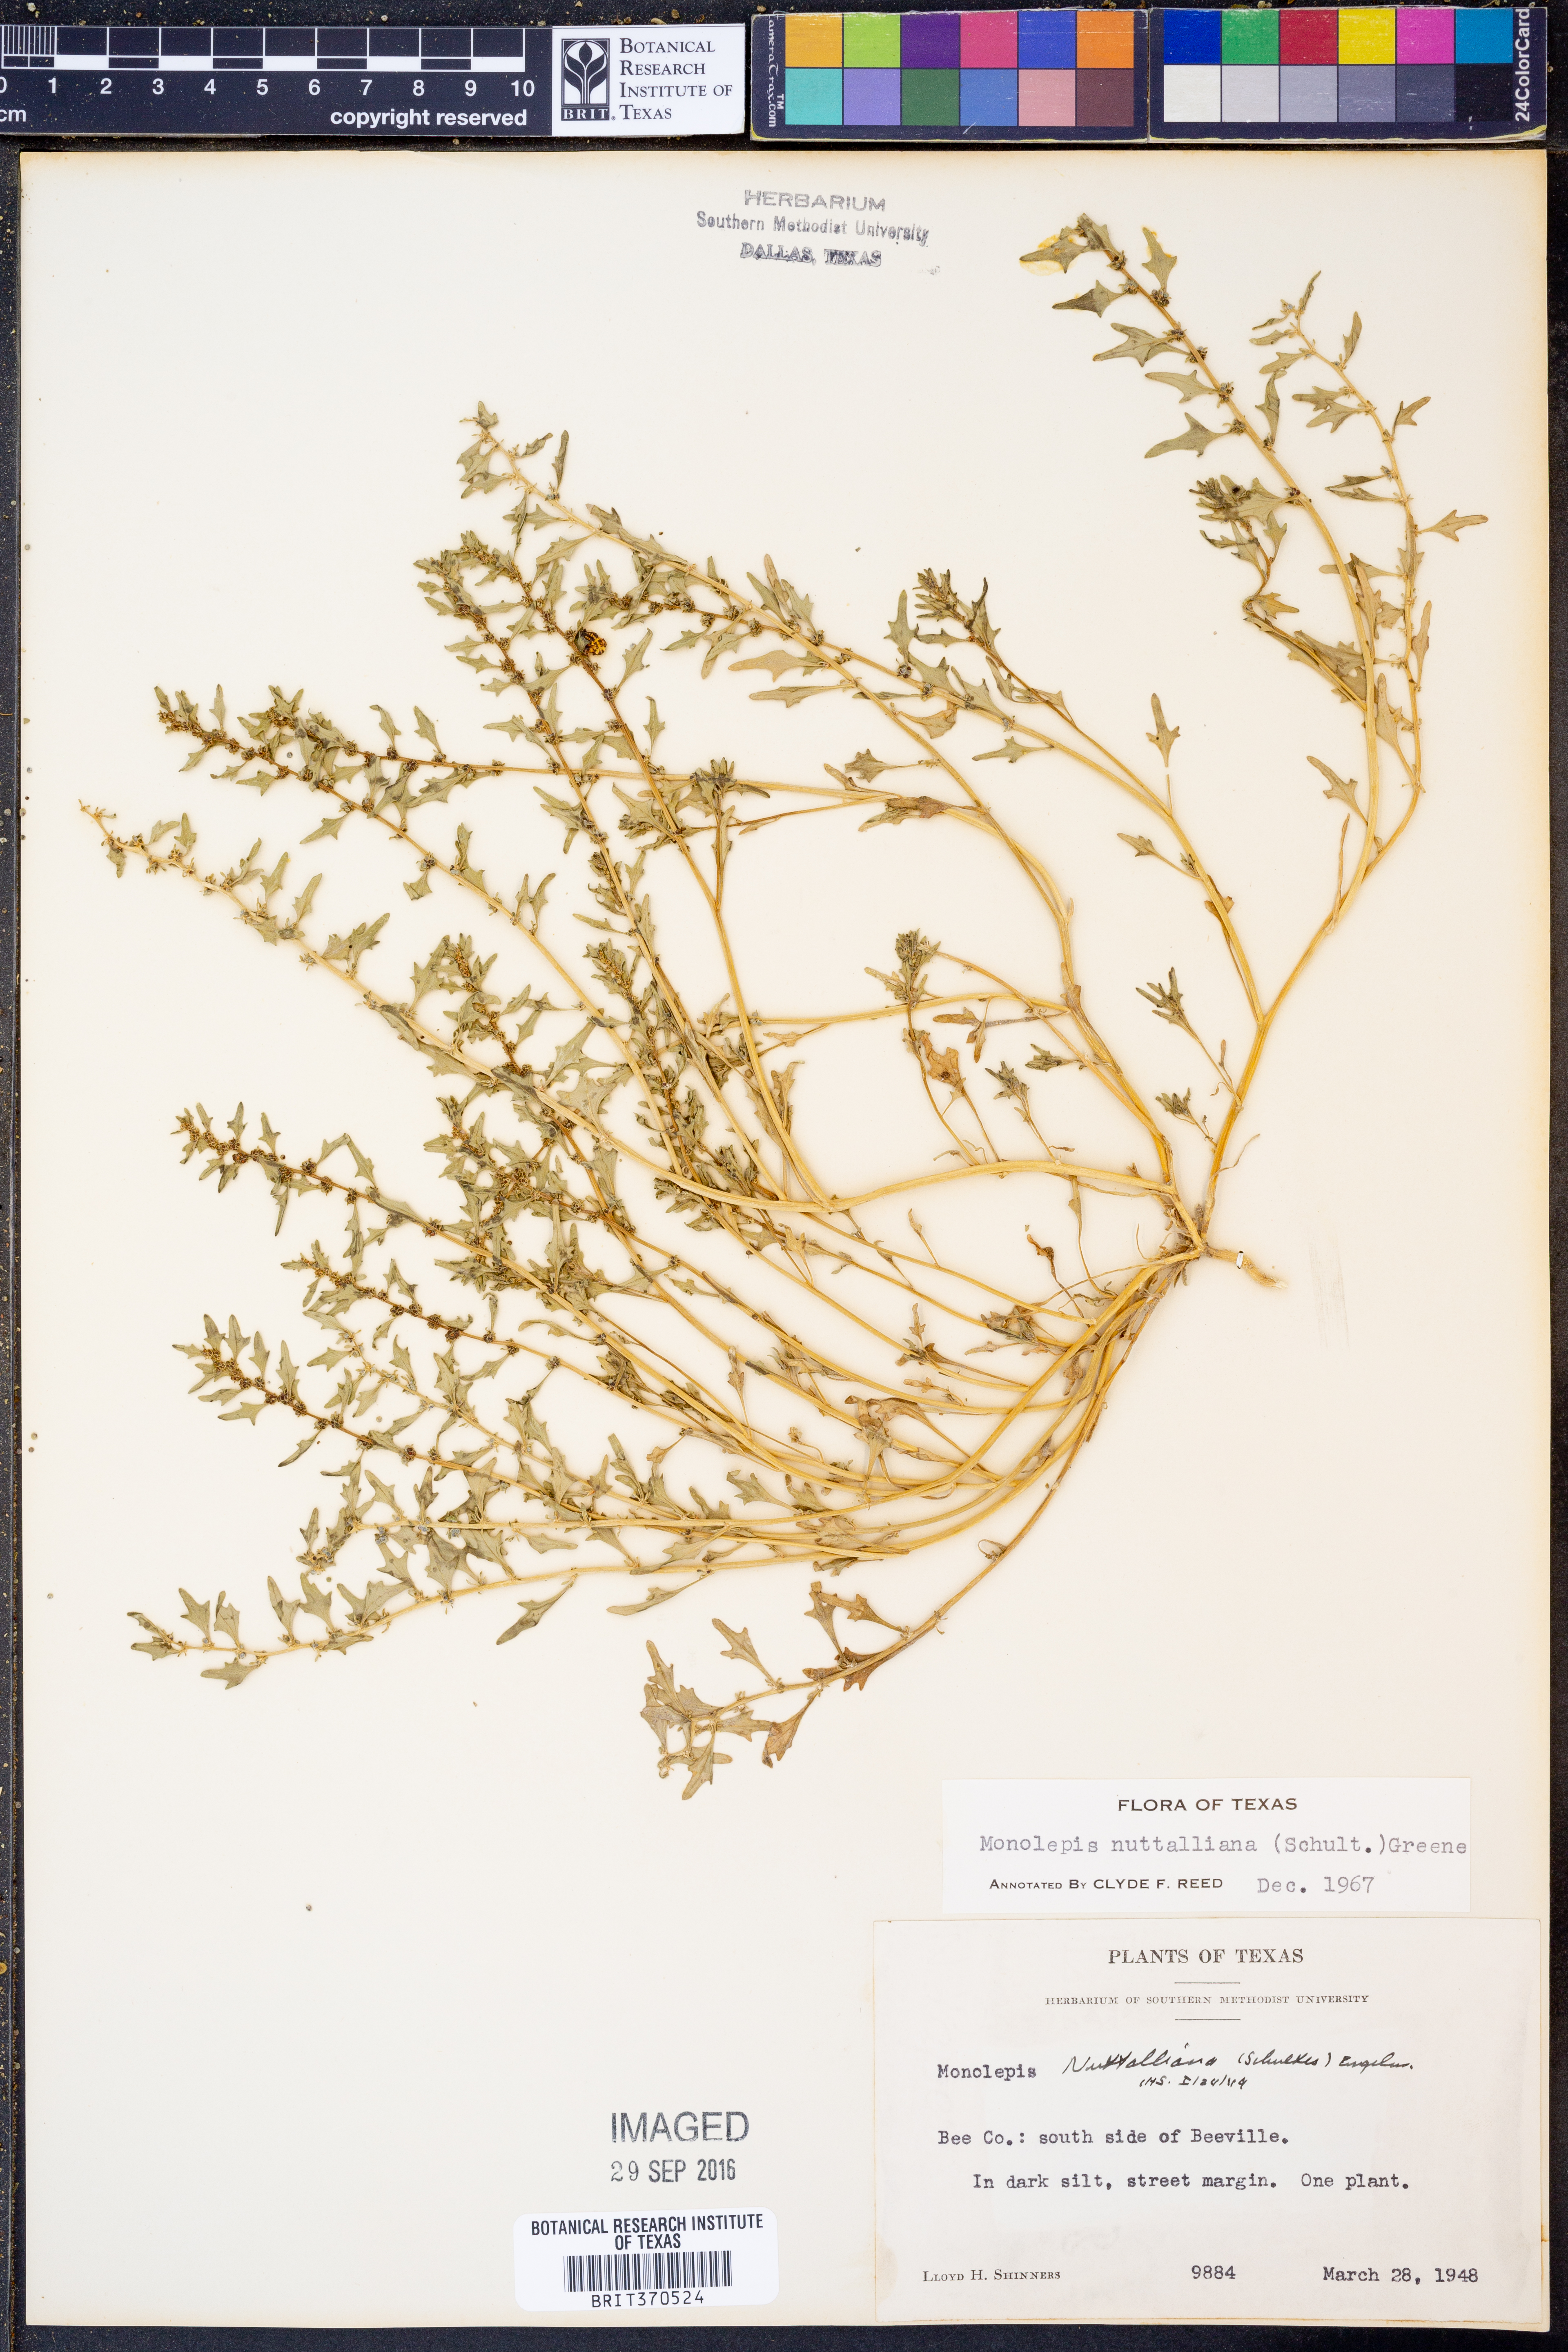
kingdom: Plantae
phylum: Tracheophyta
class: Magnoliopsida
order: Caryophyllales
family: Amaranthaceae
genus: Blitum
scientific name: Blitum nuttallianum
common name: Poverty-weed
